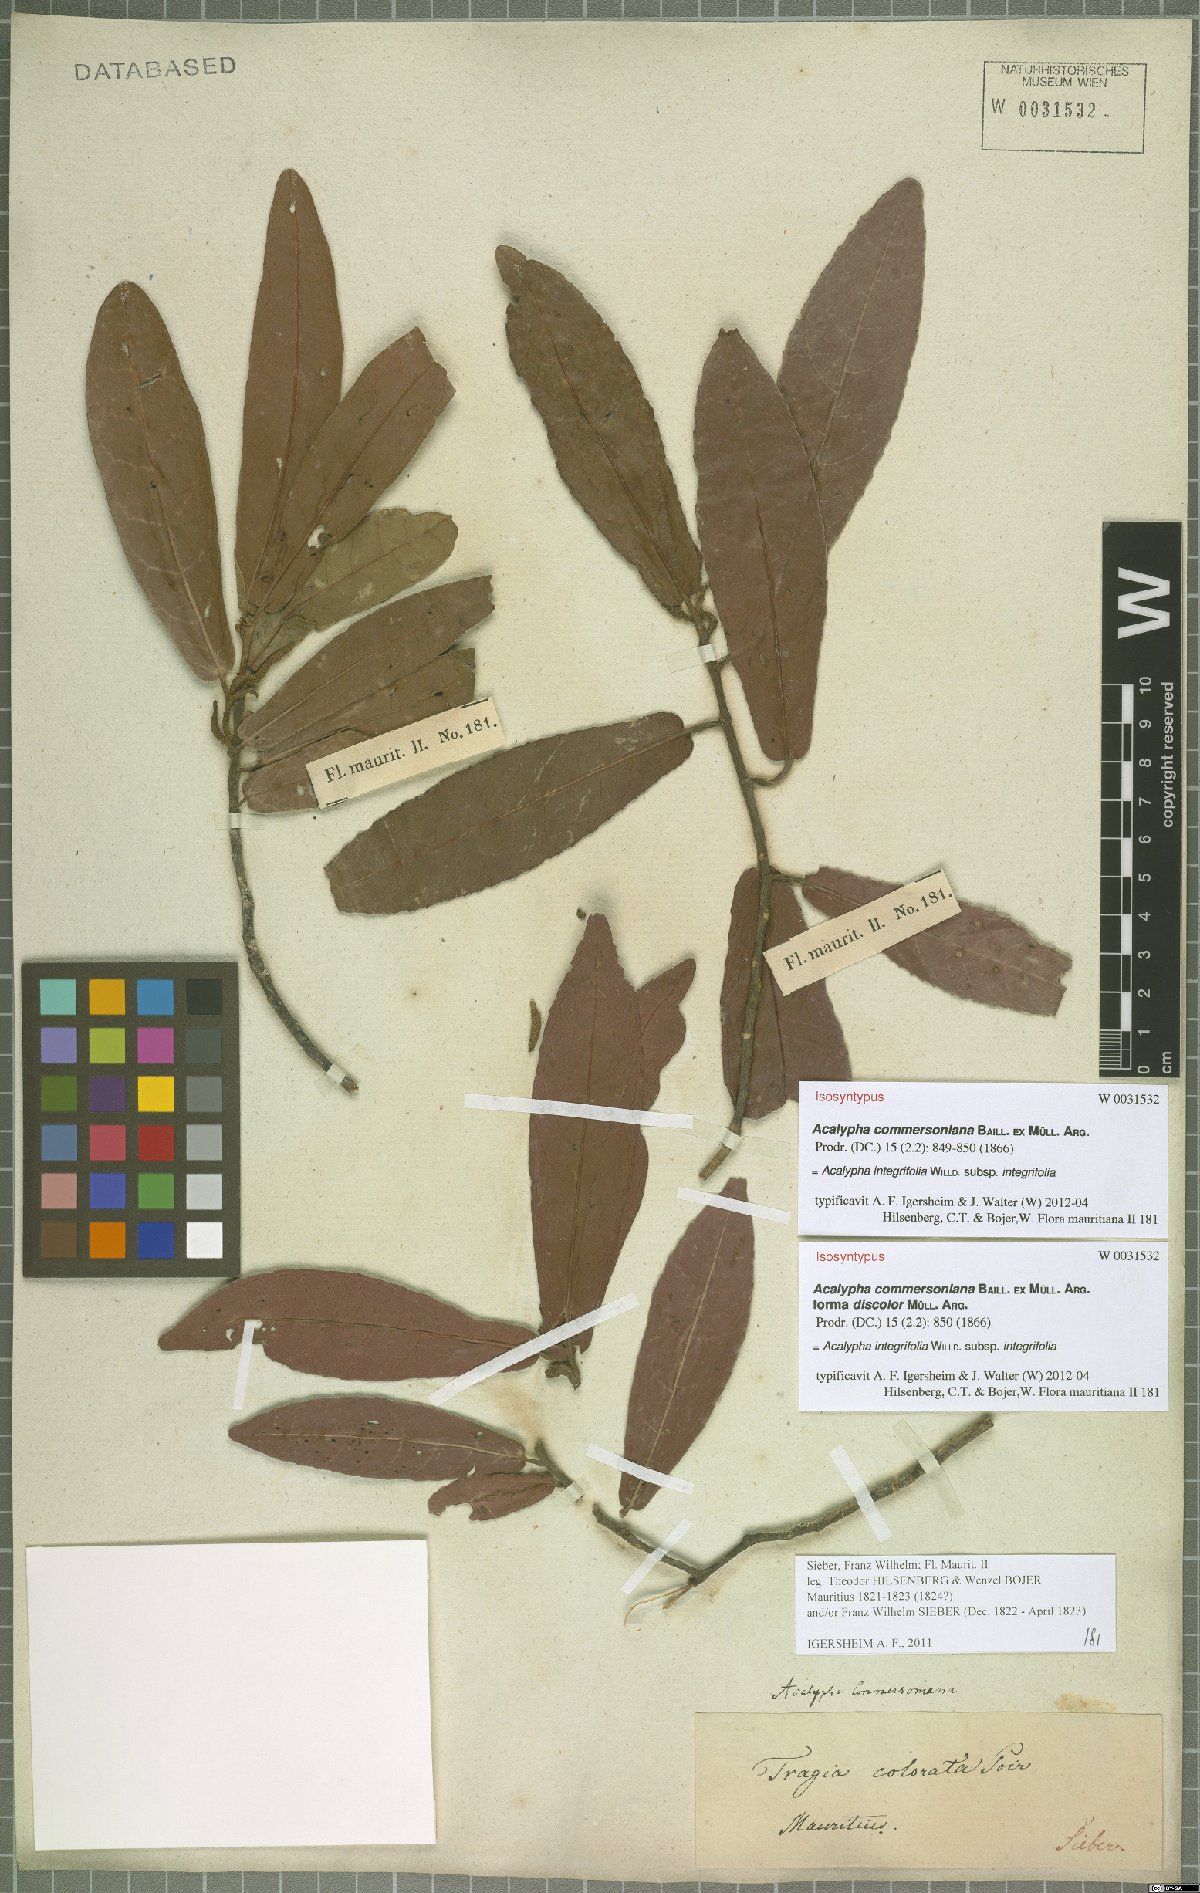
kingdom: Plantae
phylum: Tracheophyta
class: Magnoliopsida
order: Malpighiales
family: Euphorbiaceae
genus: Acalypha
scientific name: Acalypha integrifolia
